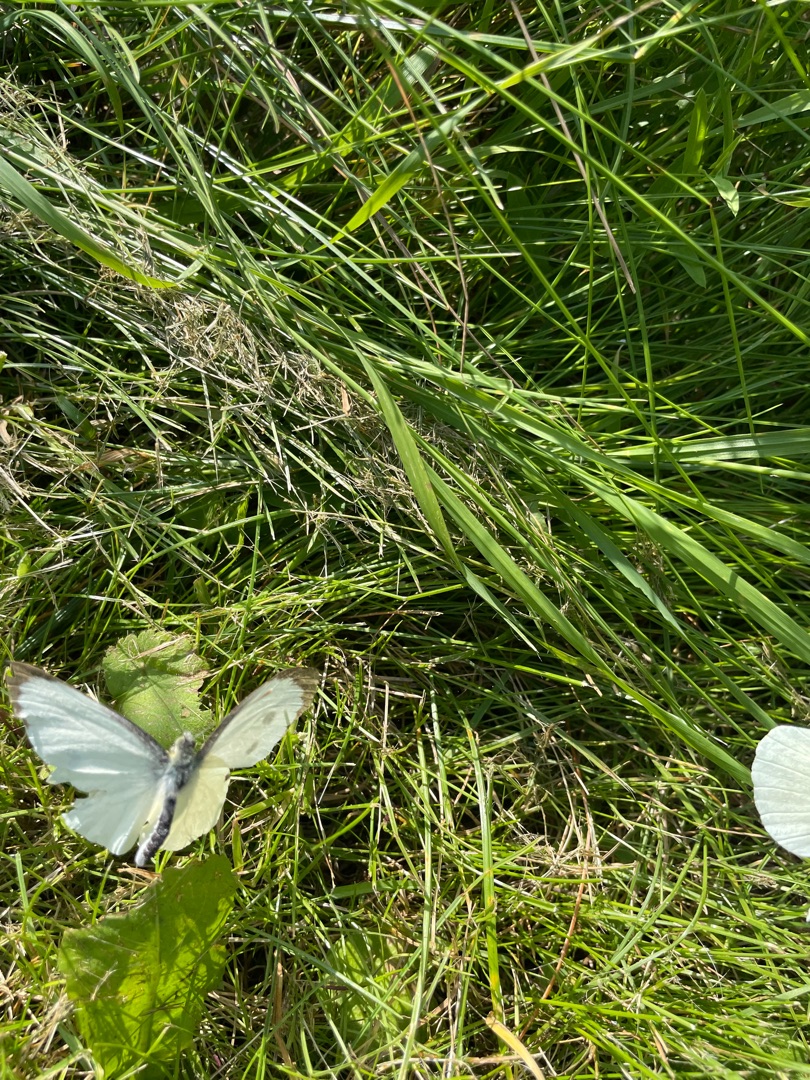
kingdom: Animalia
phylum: Arthropoda
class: Insecta
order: Lepidoptera
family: Pieridae
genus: Pieris
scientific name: Pieris brassicae
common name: Stor kålsommerfugl
